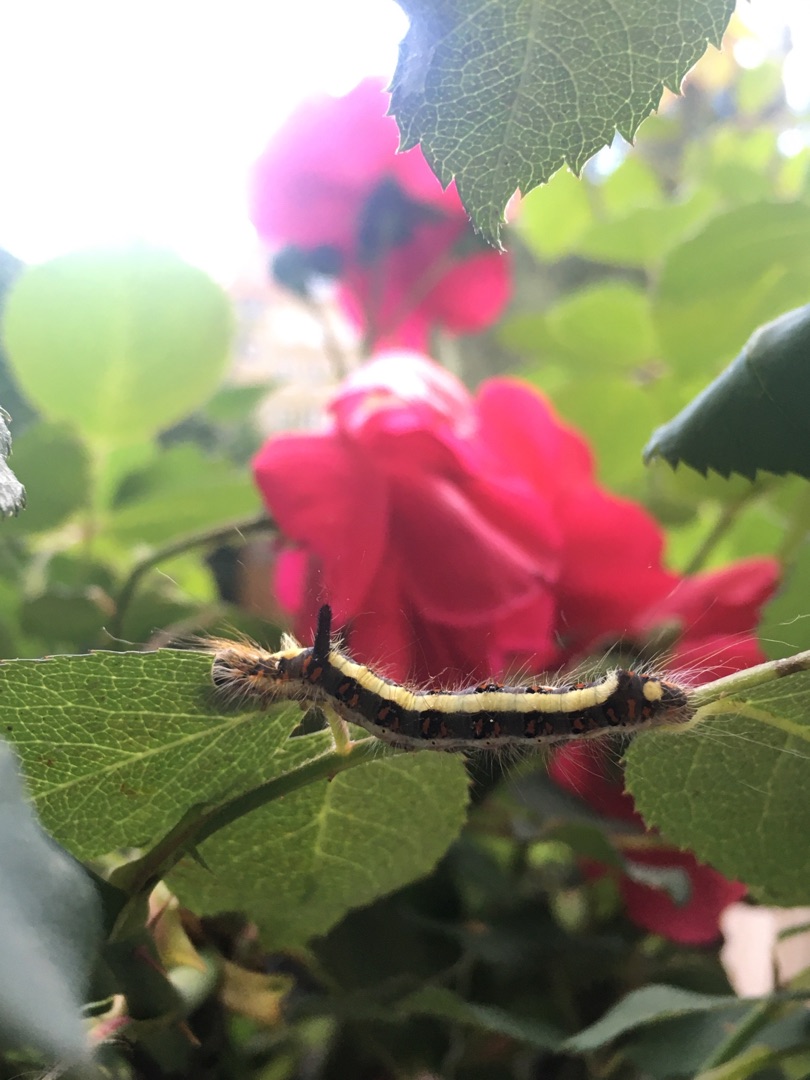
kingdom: Animalia
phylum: Arthropoda
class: Insecta
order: Lepidoptera
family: Noctuidae
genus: Acronicta
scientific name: Acronicta psi
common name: Psi-ugle
